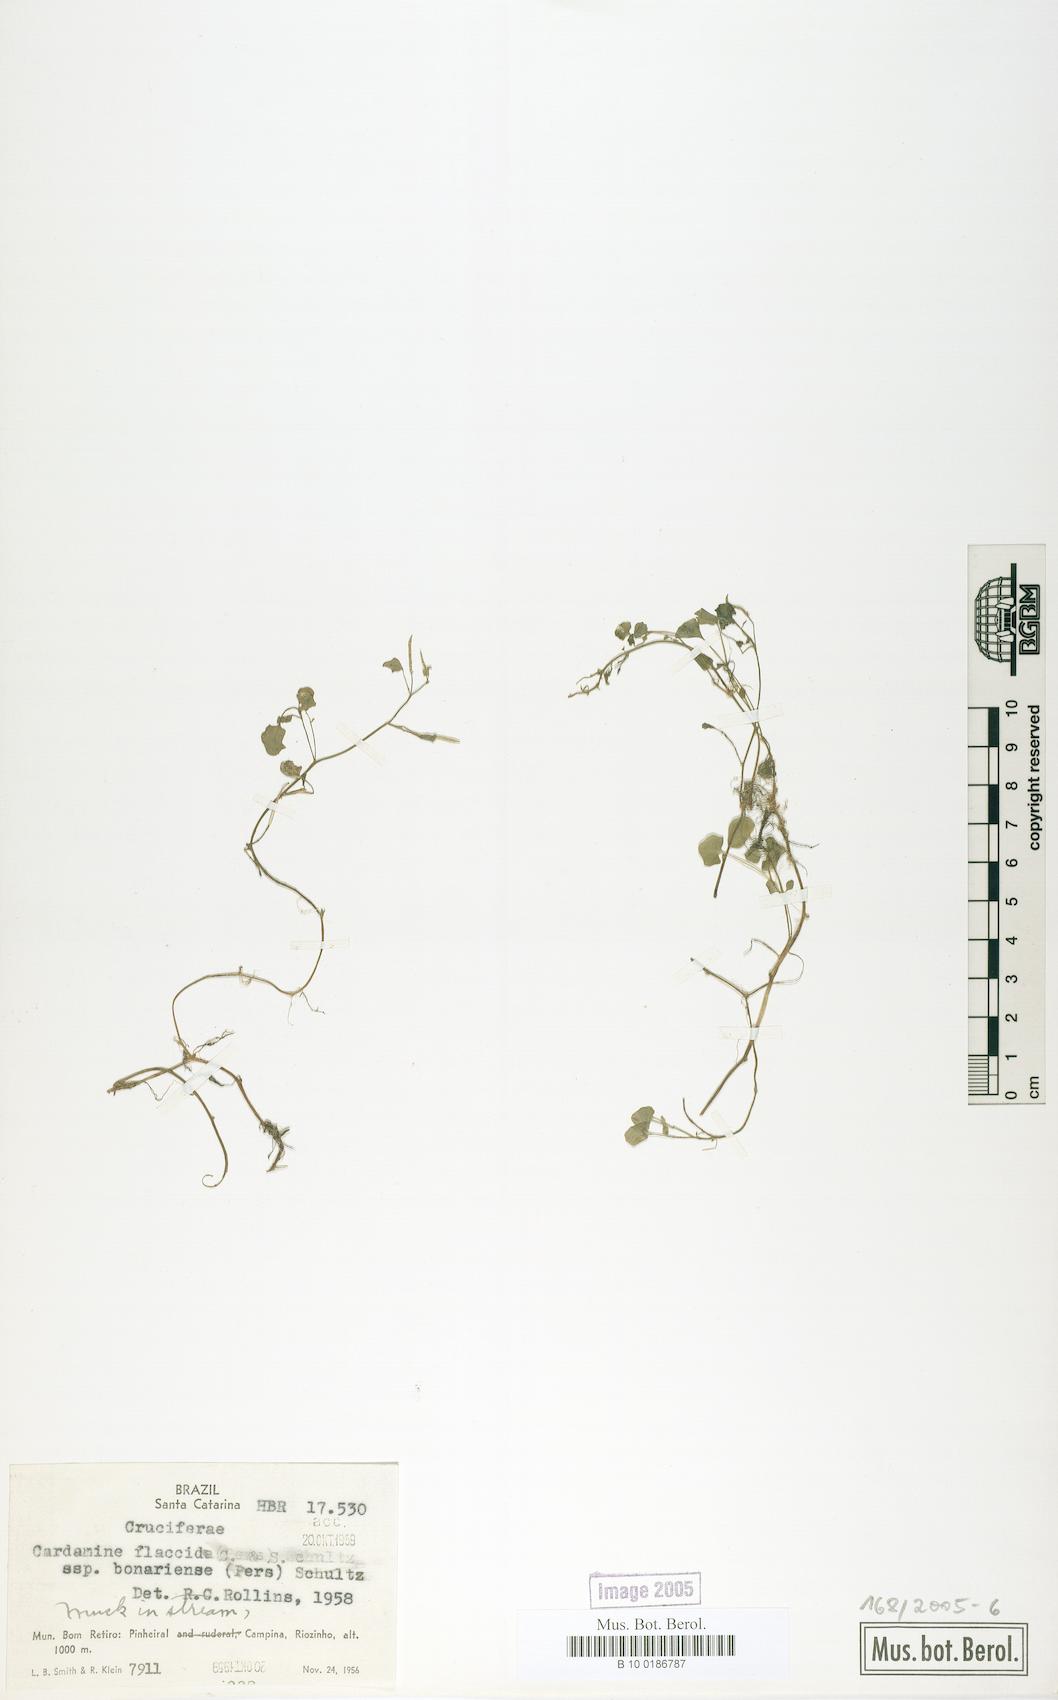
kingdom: Plantae
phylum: Tracheophyta
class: Magnoliopsida
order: Brassicales
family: Brassicaceae
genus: Cardamine
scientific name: Cardamine bonariensis
